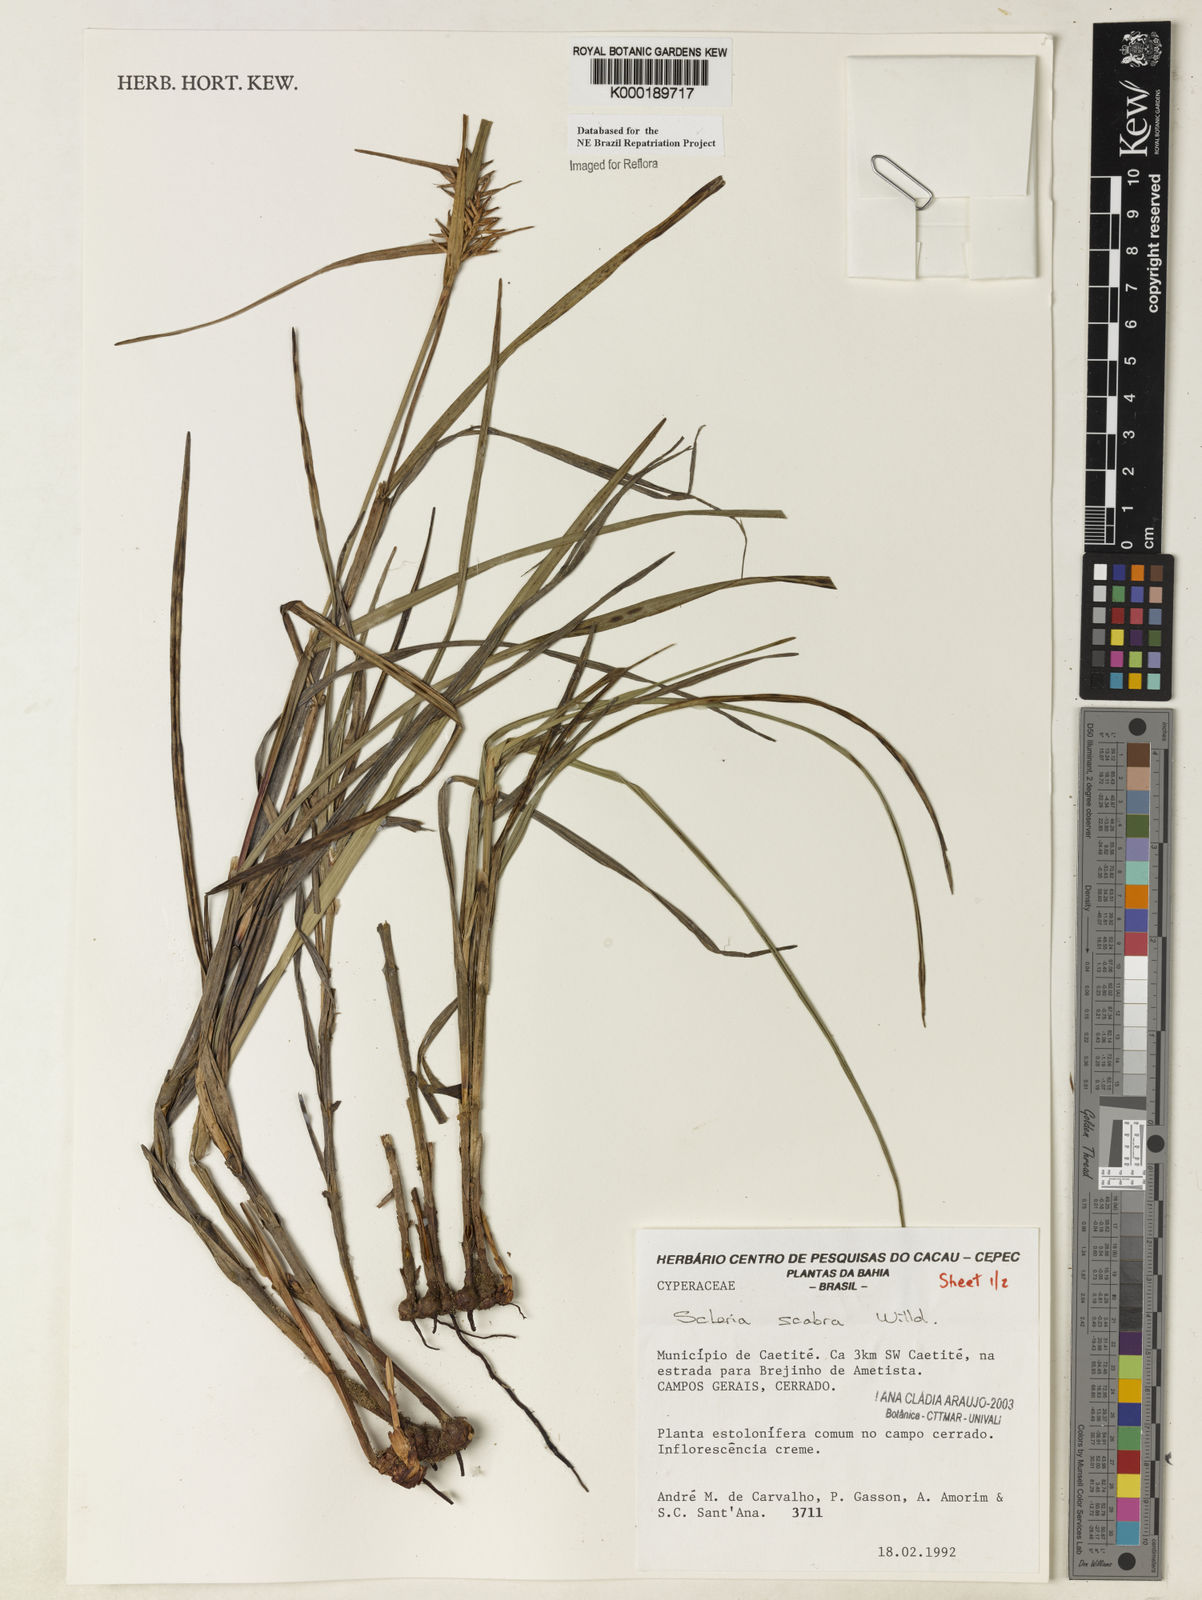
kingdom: Plantae
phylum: Tracheophyta
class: Liliopsida
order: Poales
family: Cyperaceae
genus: Scleria
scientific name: Scleria scabra
